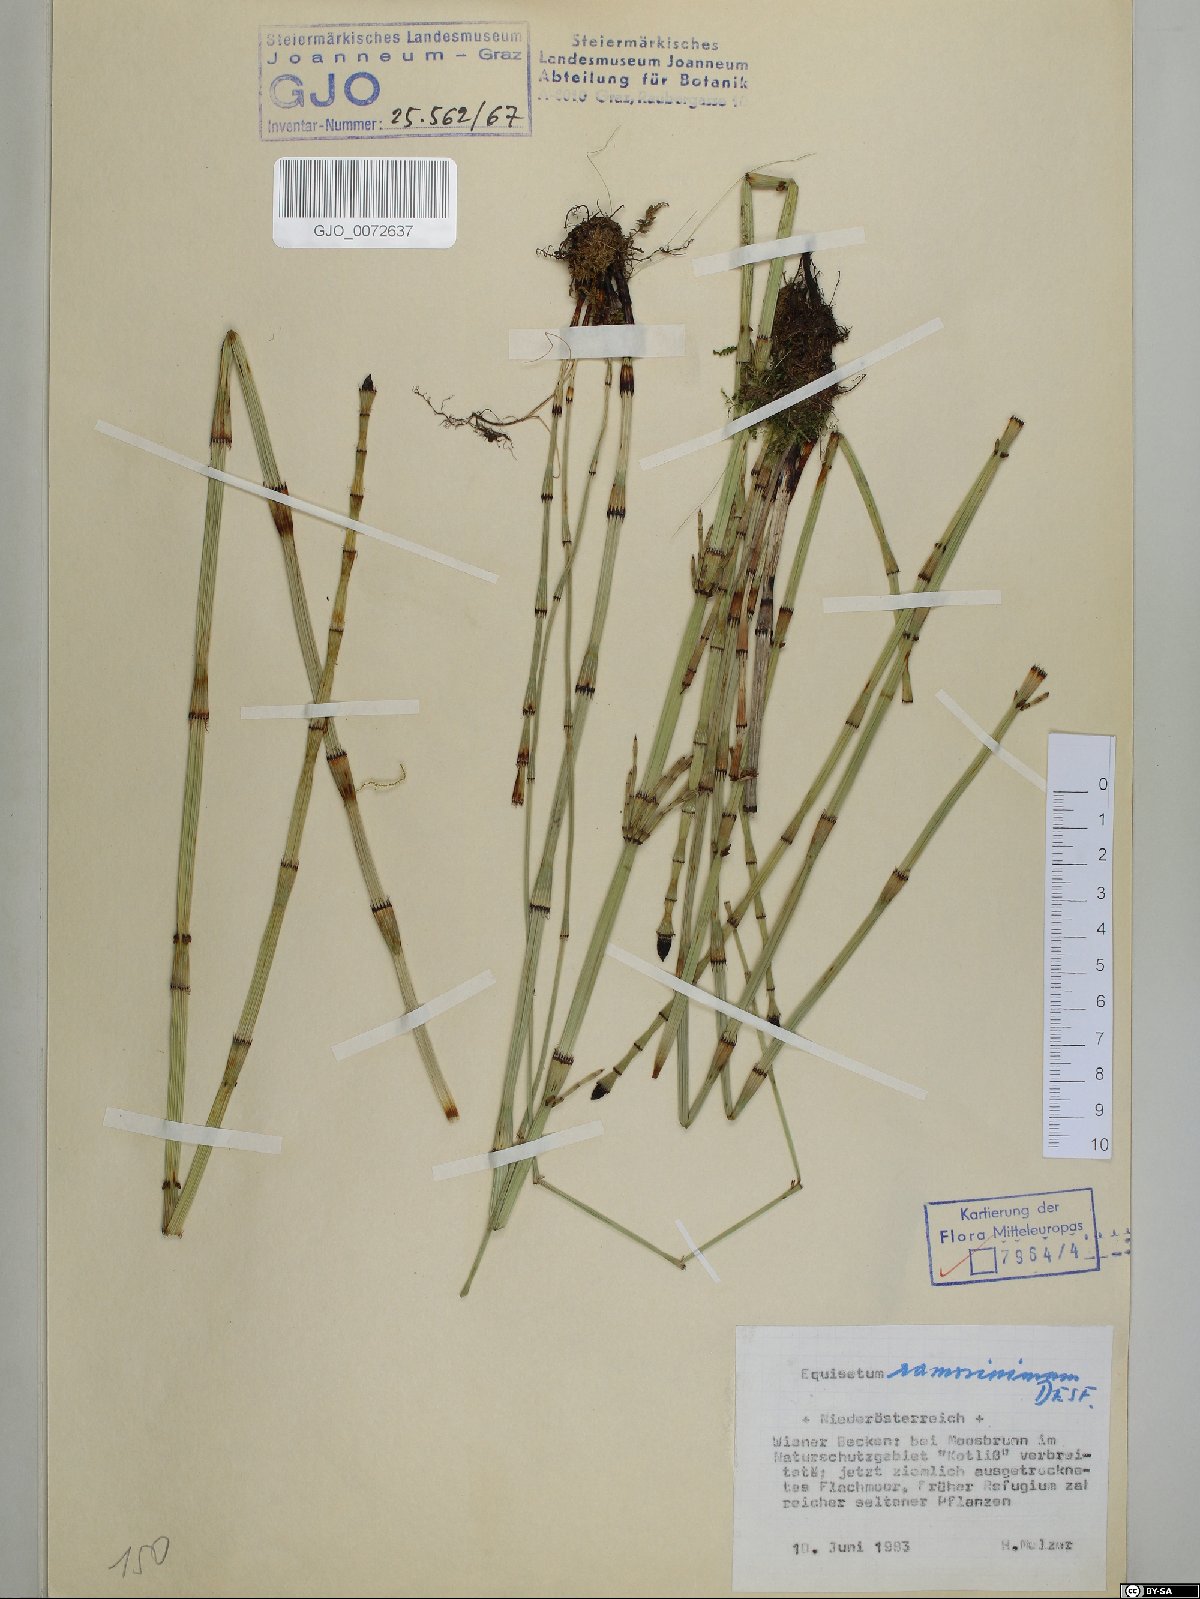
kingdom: Plantae
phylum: Tracheophyta
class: Polypodiopsida
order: Equisetales
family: Equisetaceae
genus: Equisetum
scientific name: Equisetum ramosissimum
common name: Branched horsetail
